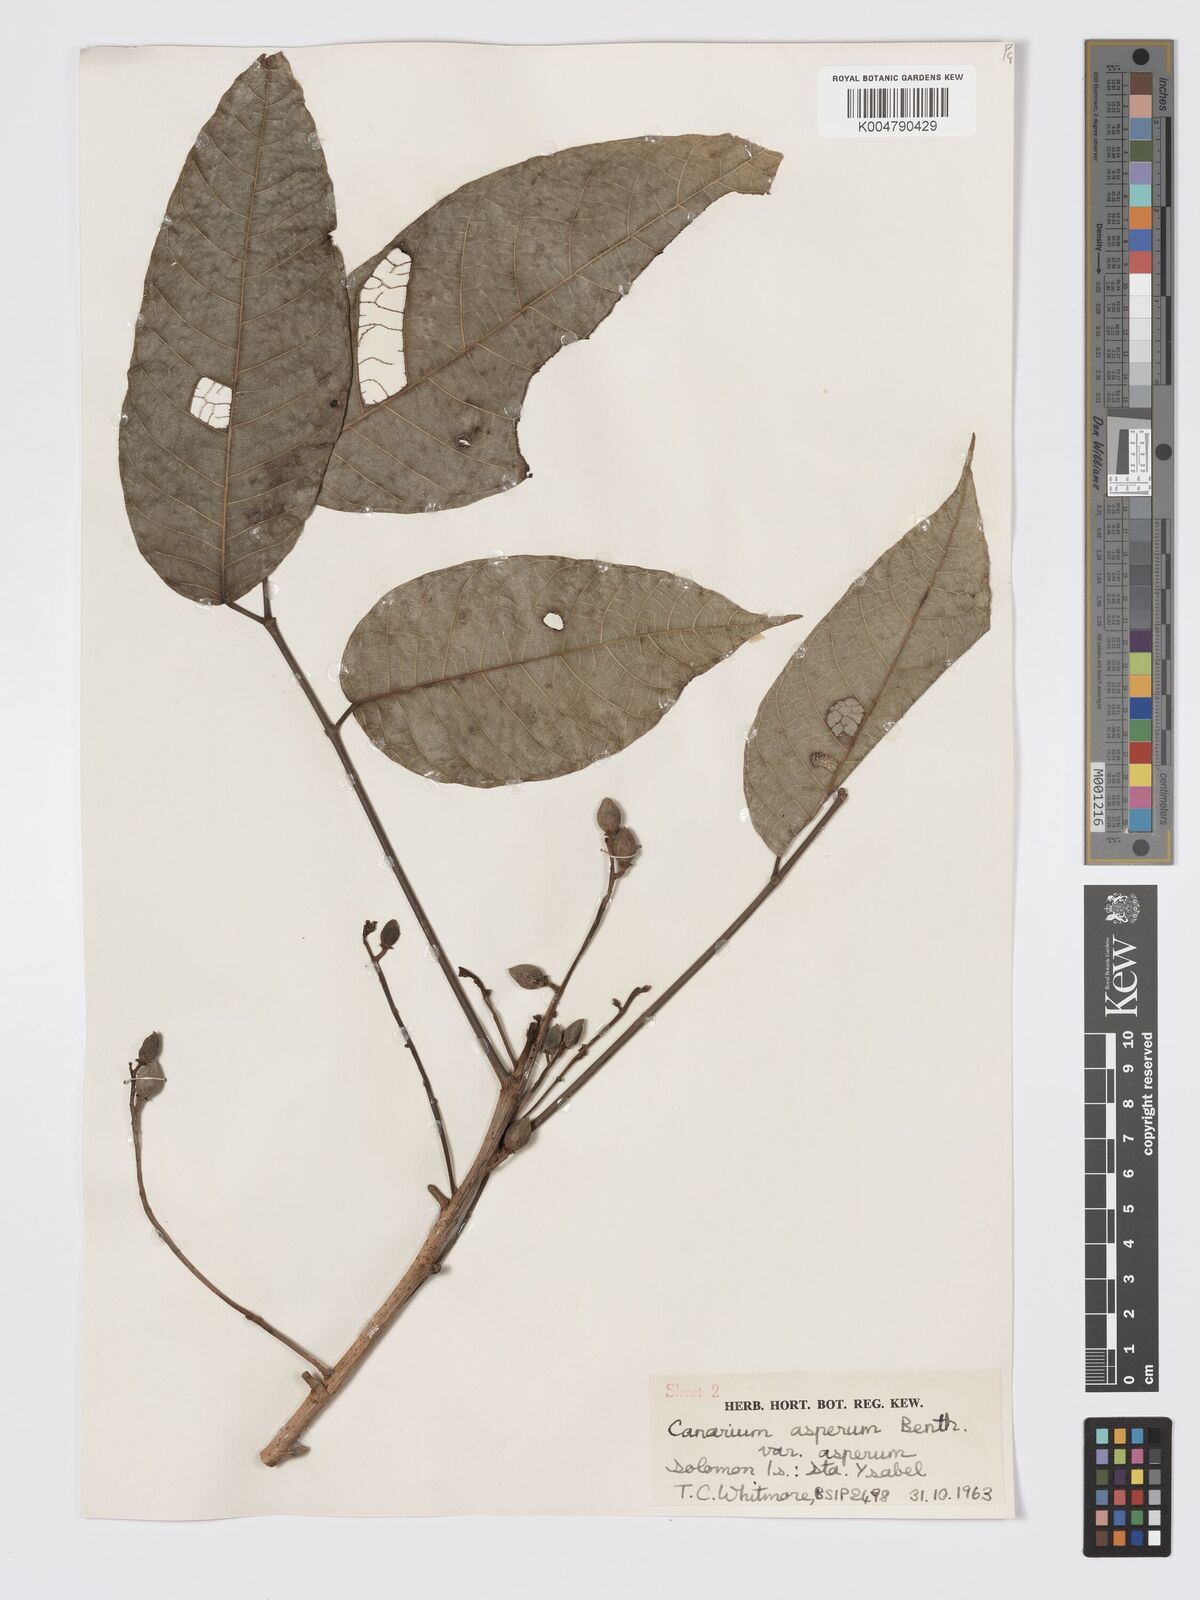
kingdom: Plantae
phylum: Tracheophyta
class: Magnoliopsida
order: Sapindales
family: Burseraceae
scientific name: Burseraceae
